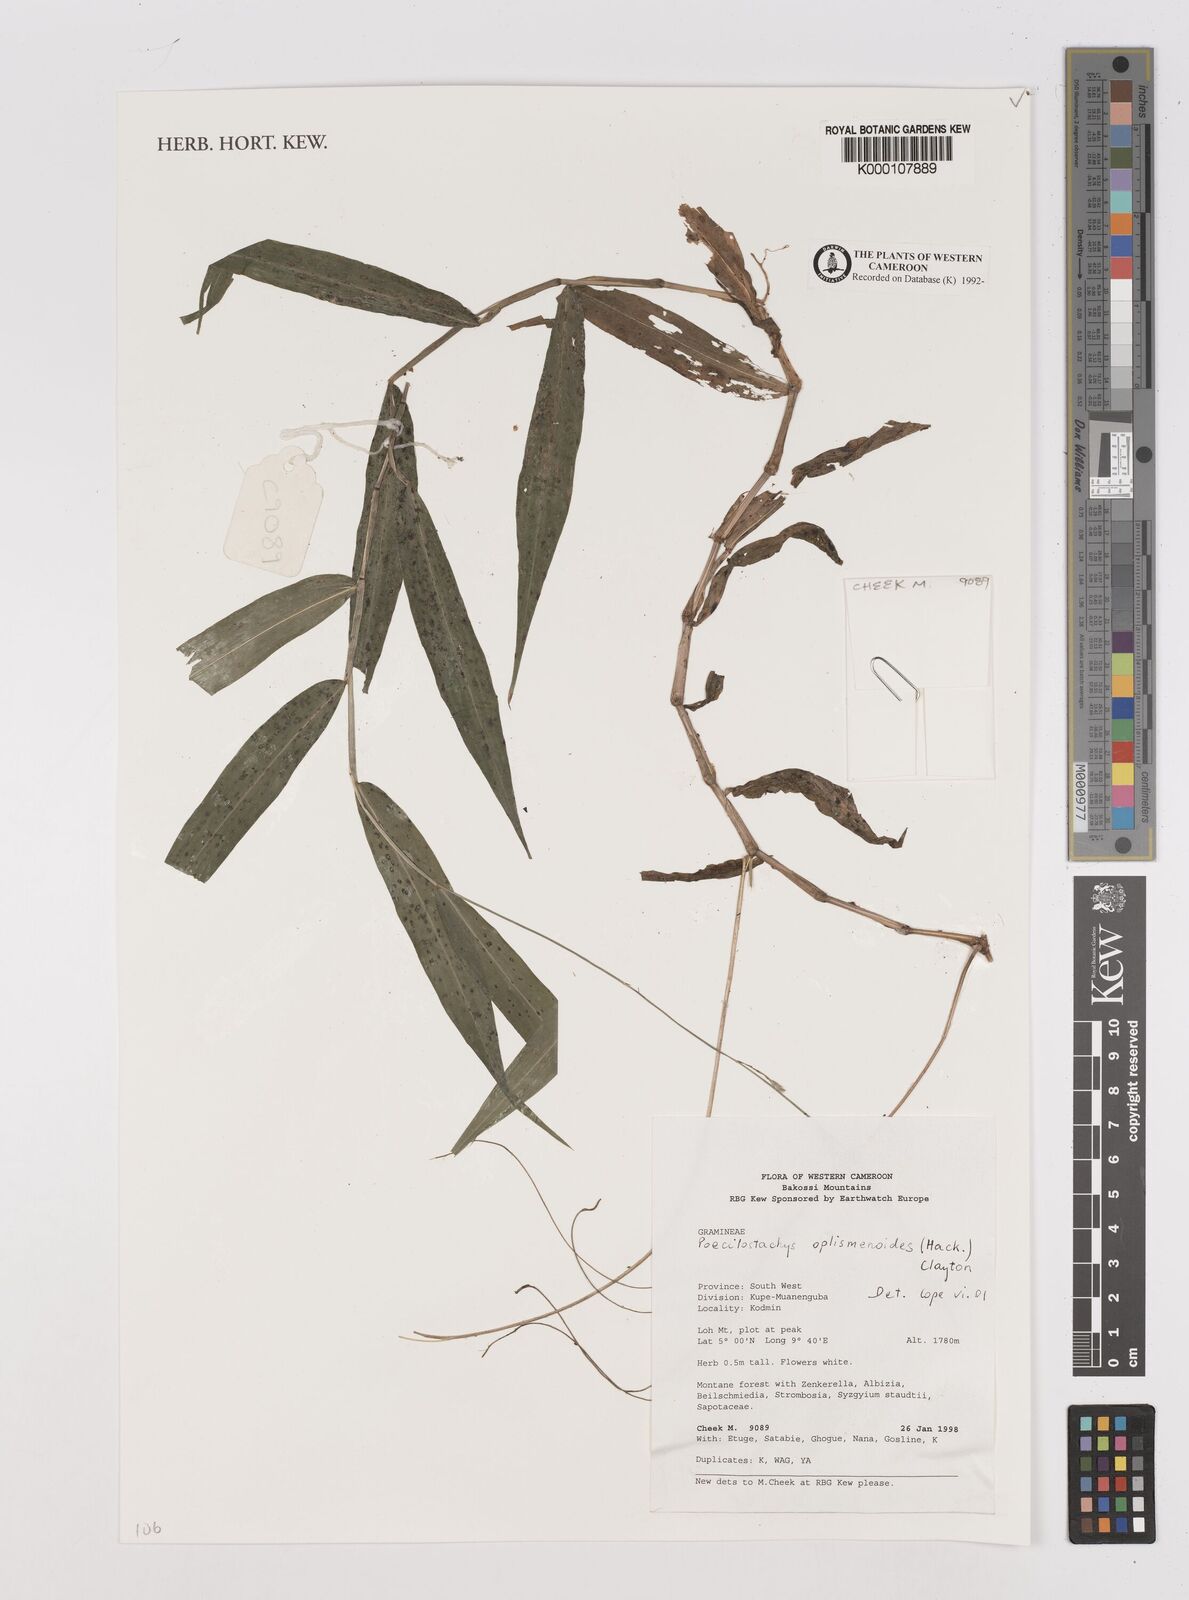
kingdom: Plantae
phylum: Tracheophyta
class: Liliopsida
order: Poales
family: Poaceae
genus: Poecilostachys
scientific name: Poecilostachys oplismenoides
